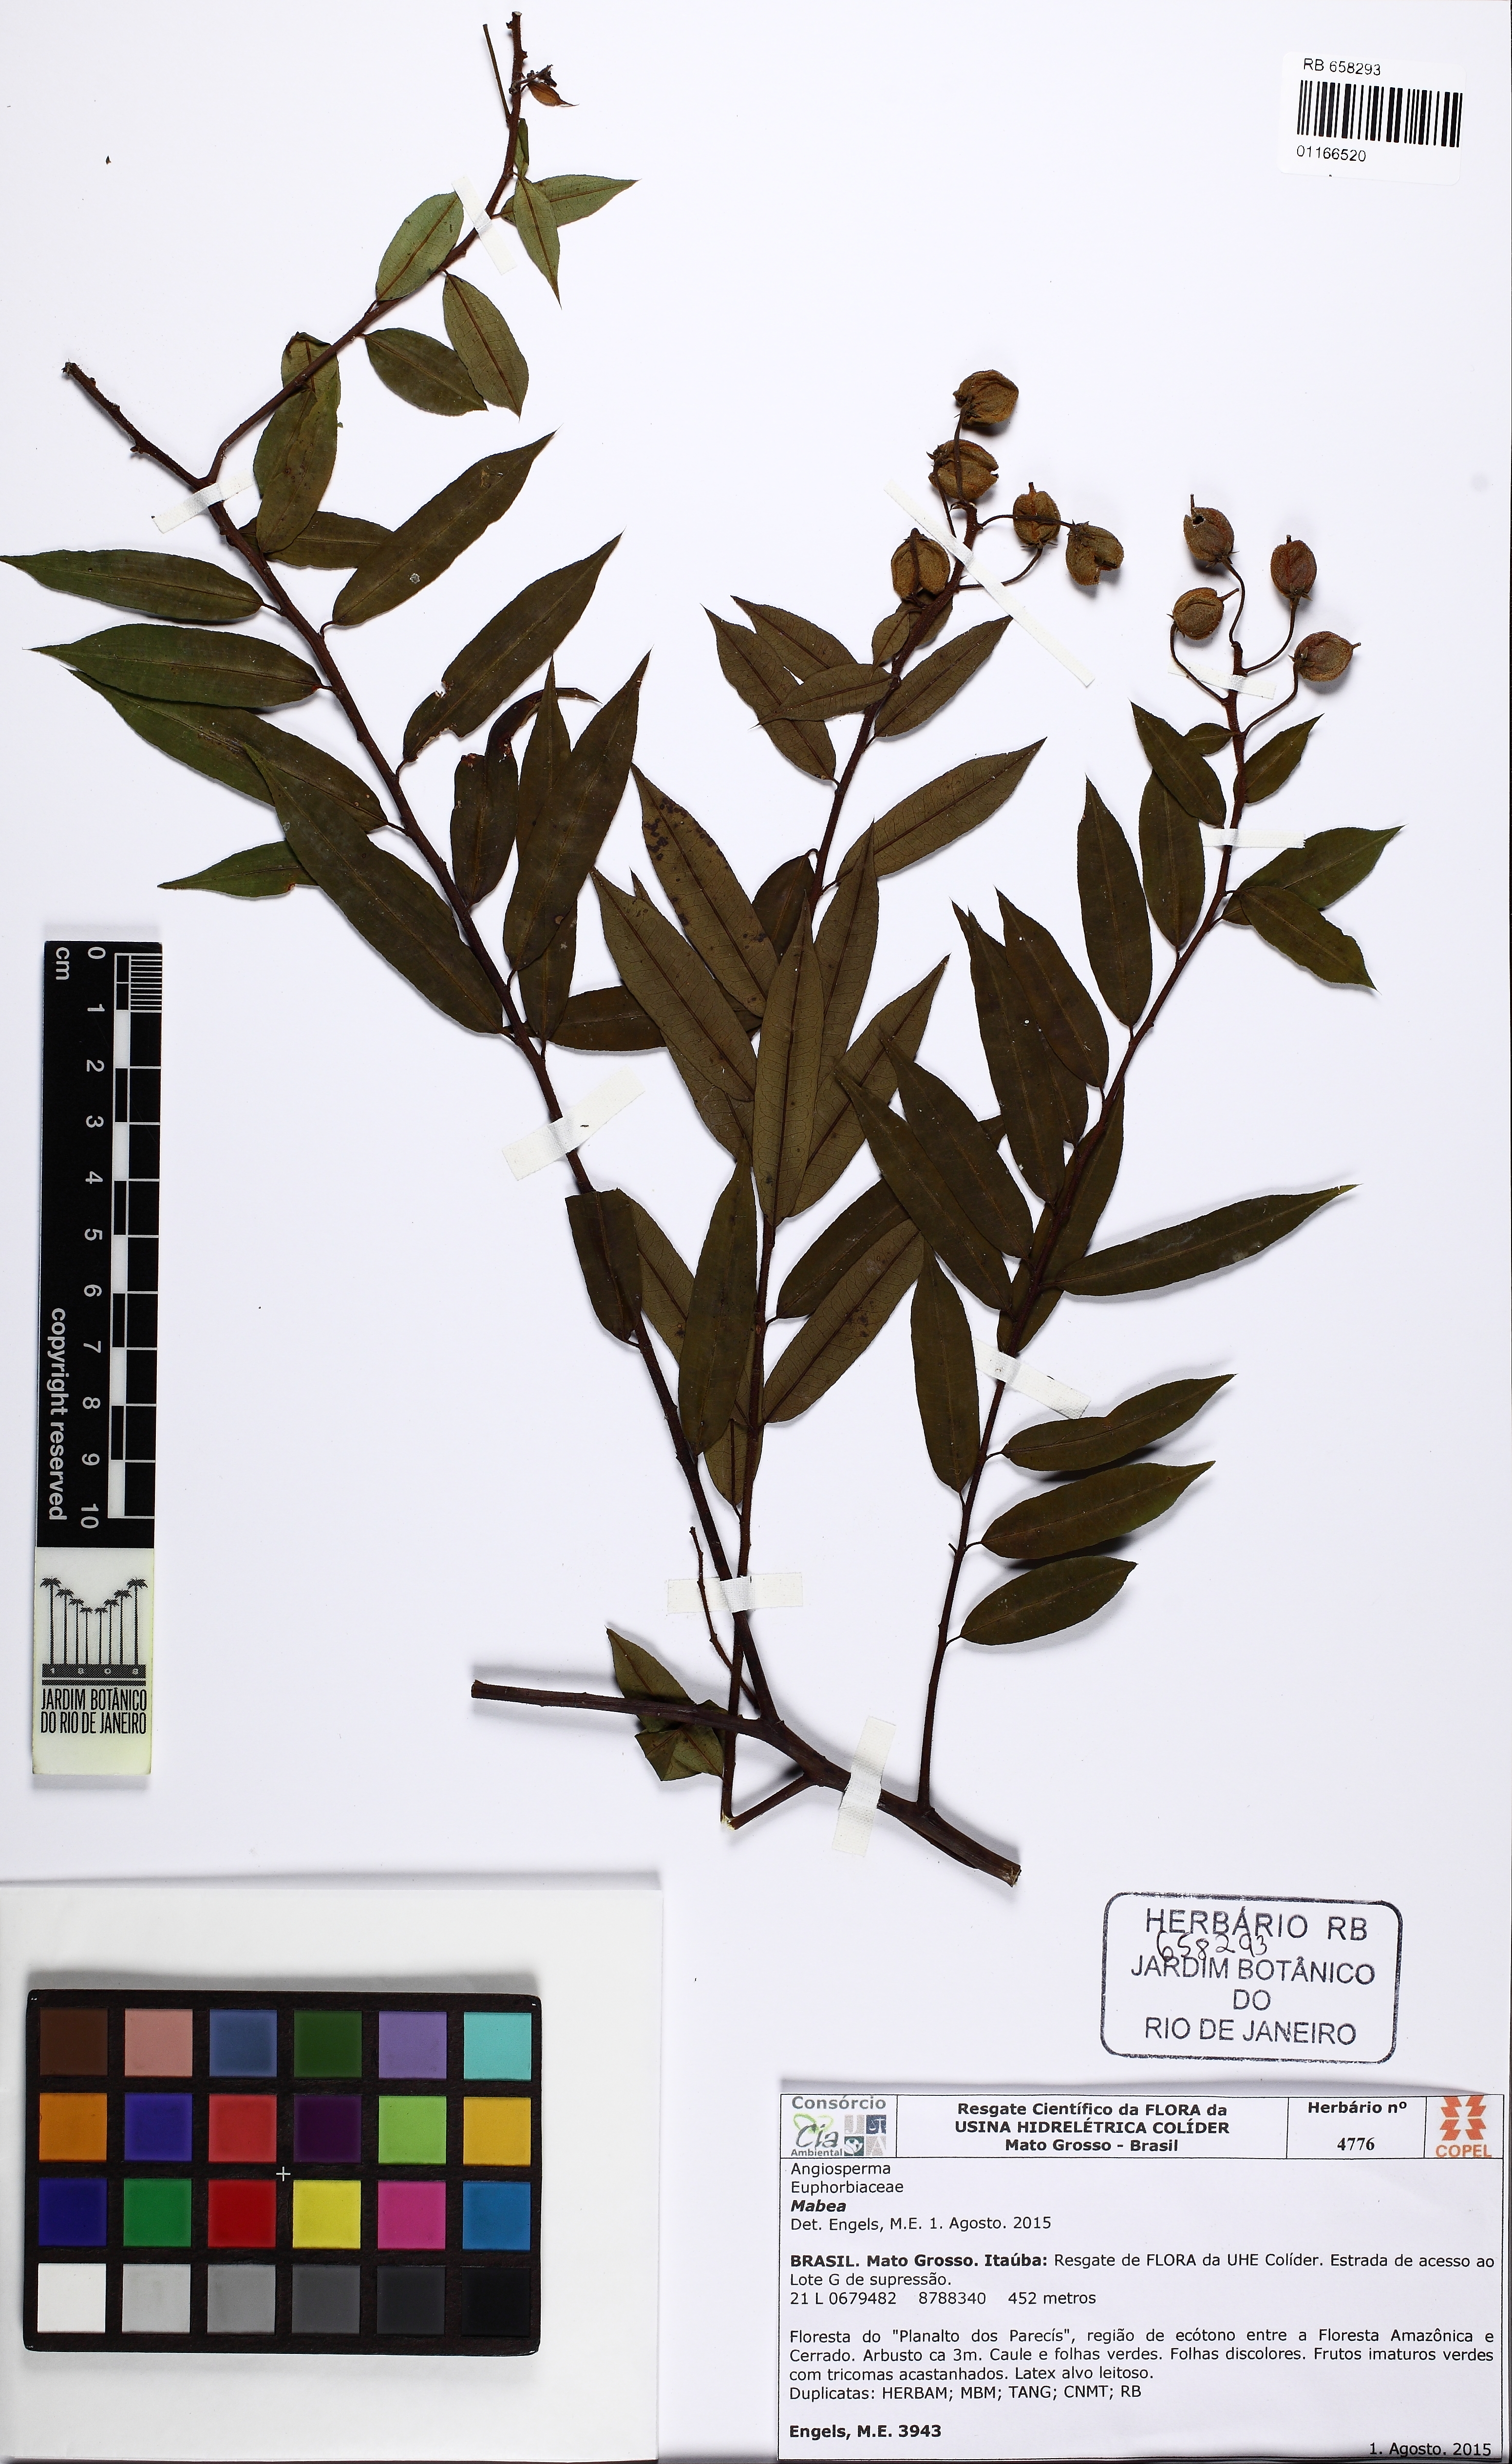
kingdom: Plantae
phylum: Tracheophyta
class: Magnoliopsida
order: Malpighiales
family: Euphorbiaceae
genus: Mabea
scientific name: Mabea
